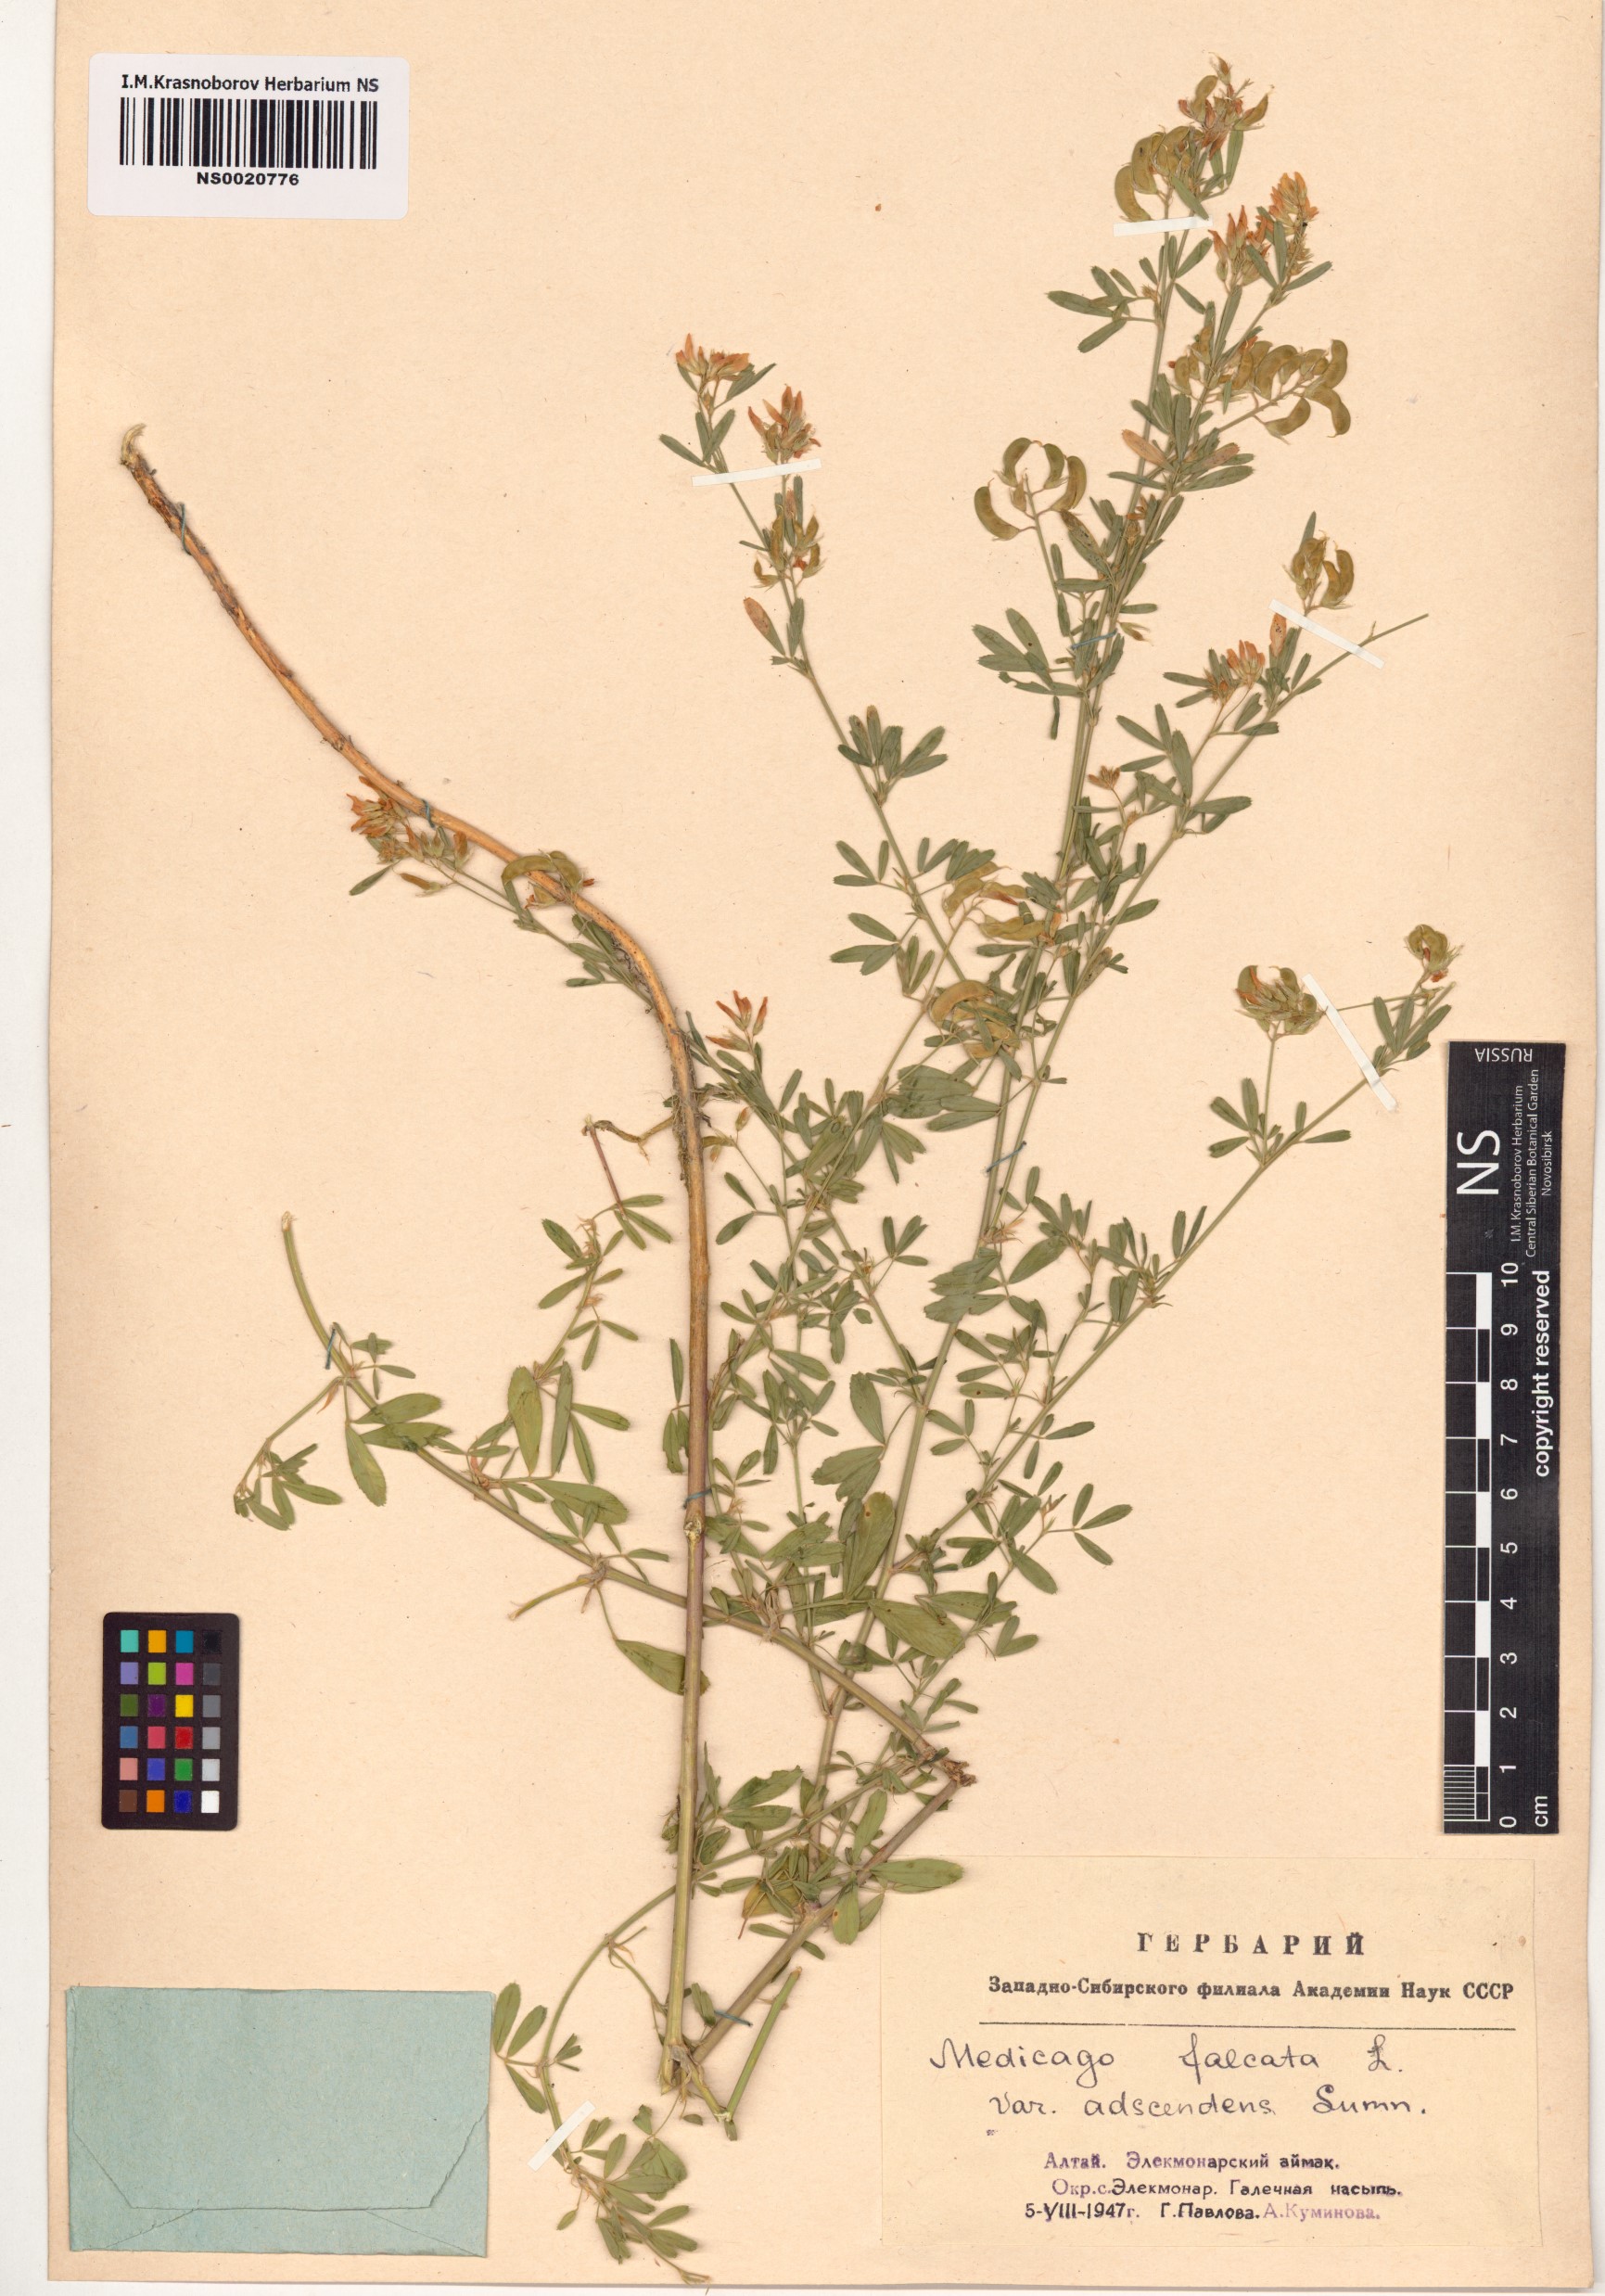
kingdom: Plantae
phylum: Tracheophyta
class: Magnoliopsida
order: Fabales
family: Fabaceae
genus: Medicago
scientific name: Medicago falcata
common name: Sickle medick
